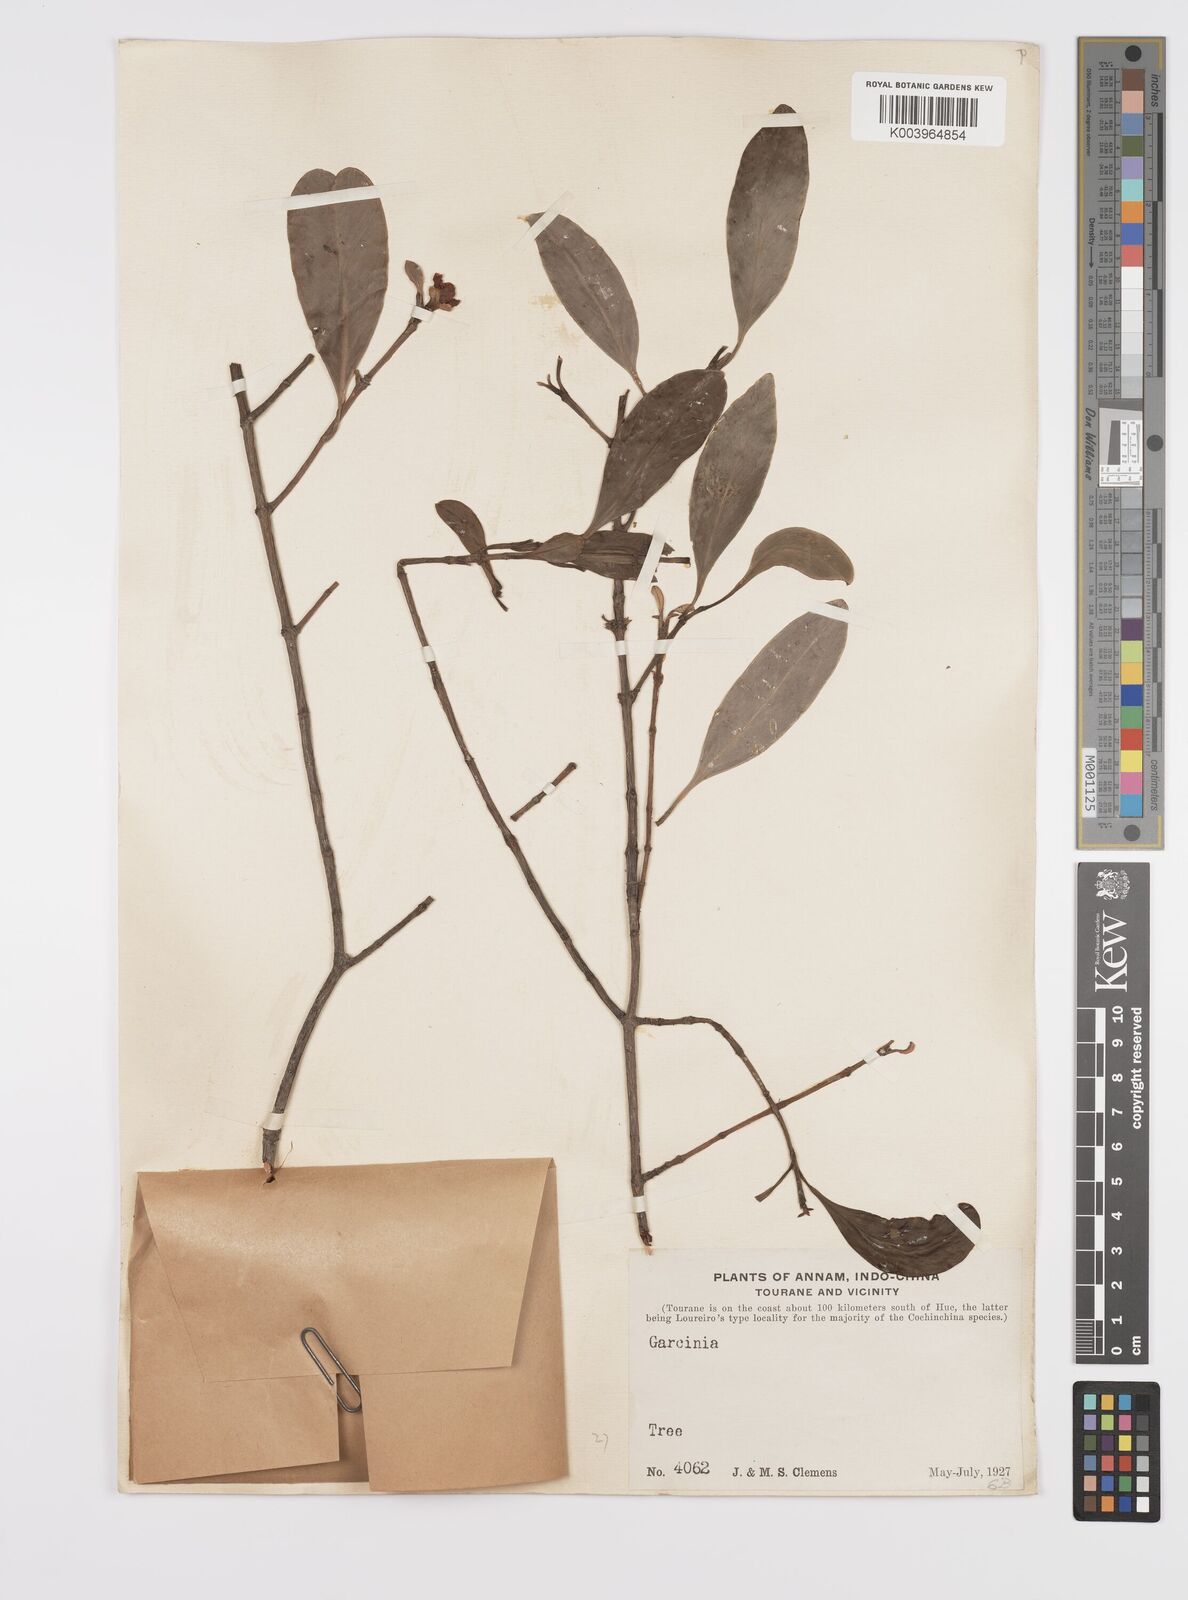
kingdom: Plantae
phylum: Tracheophyta
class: Magnoliopsida
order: Malpighiales
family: Clusiaceae
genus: Garcinia
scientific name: Garcinia
